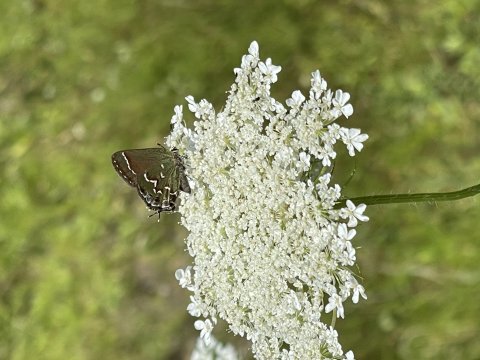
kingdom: Animalia
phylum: Arthropoda
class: Insecta
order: Lepidoptera
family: Lycaenidae
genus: Mitoura
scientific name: Mitoura gryneus
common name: Juniper Hairstreak
